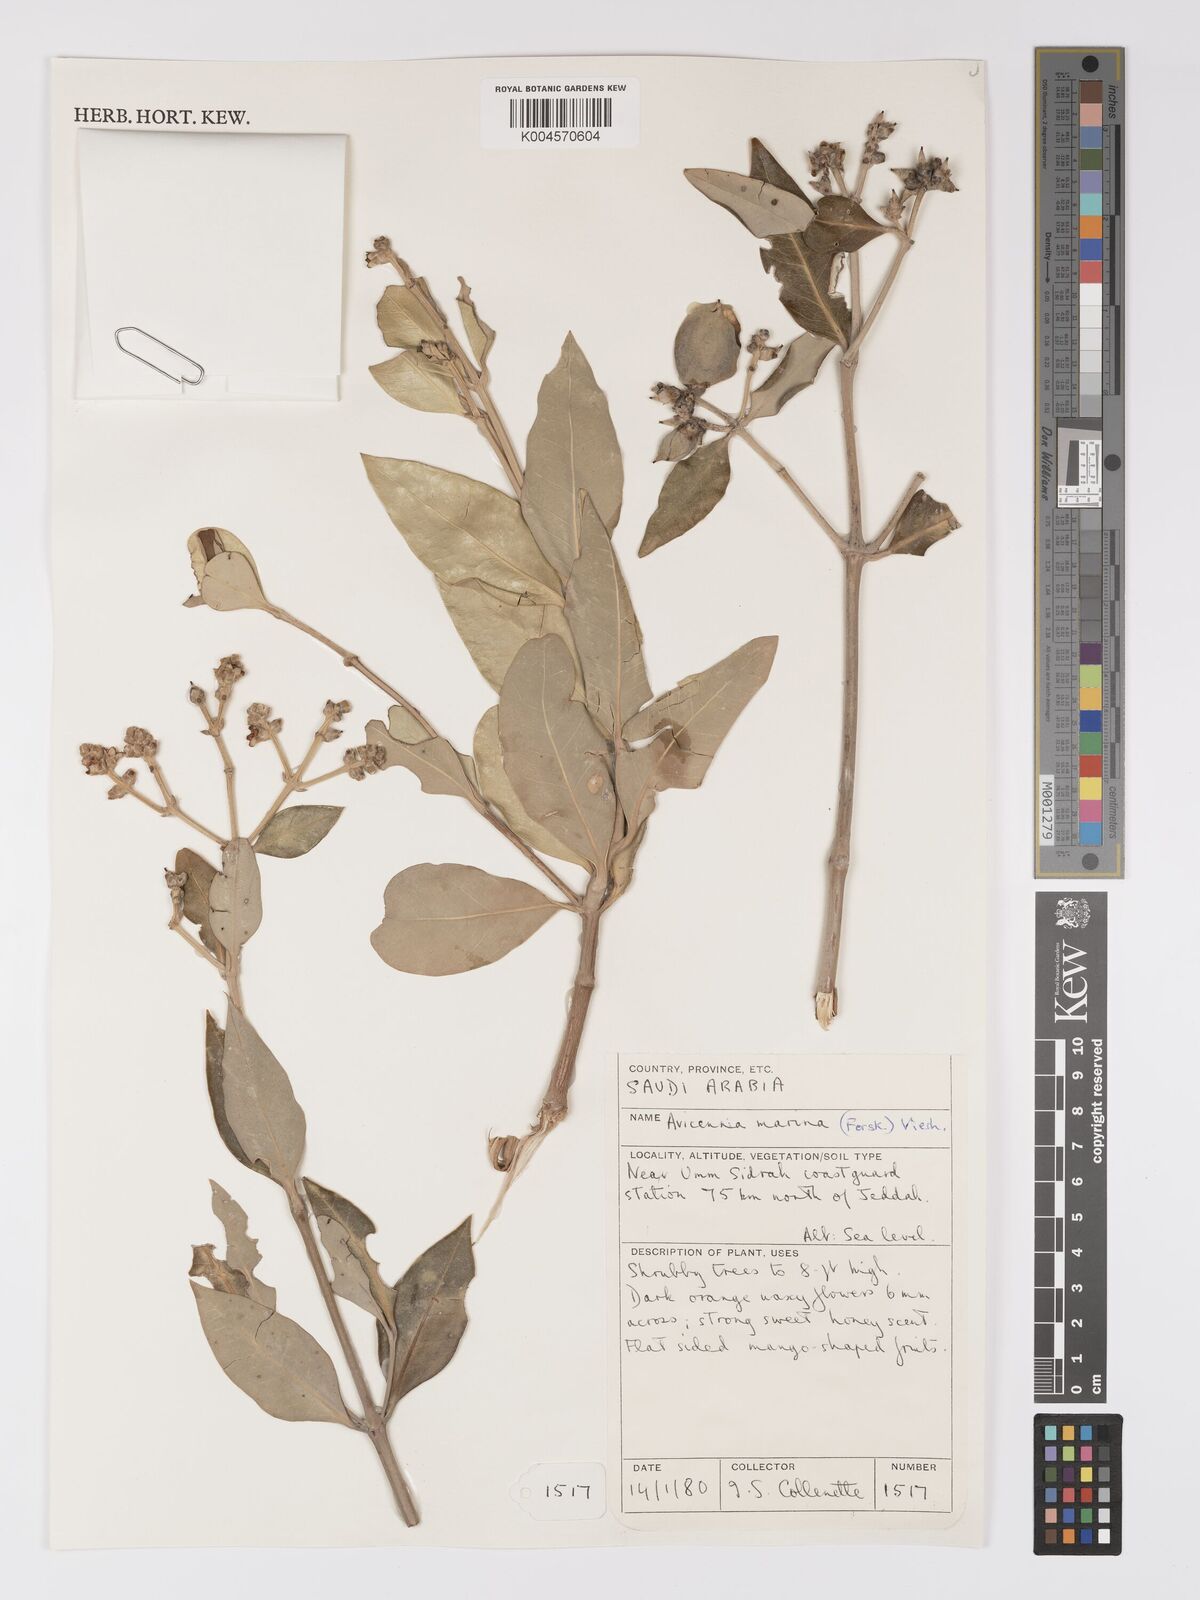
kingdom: Plantae
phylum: Tracheophyta
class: Magnoliopsida
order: Lamiales
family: Acanthaceae
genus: Avicennia
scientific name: Avicennia marina
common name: Gray mangrove
